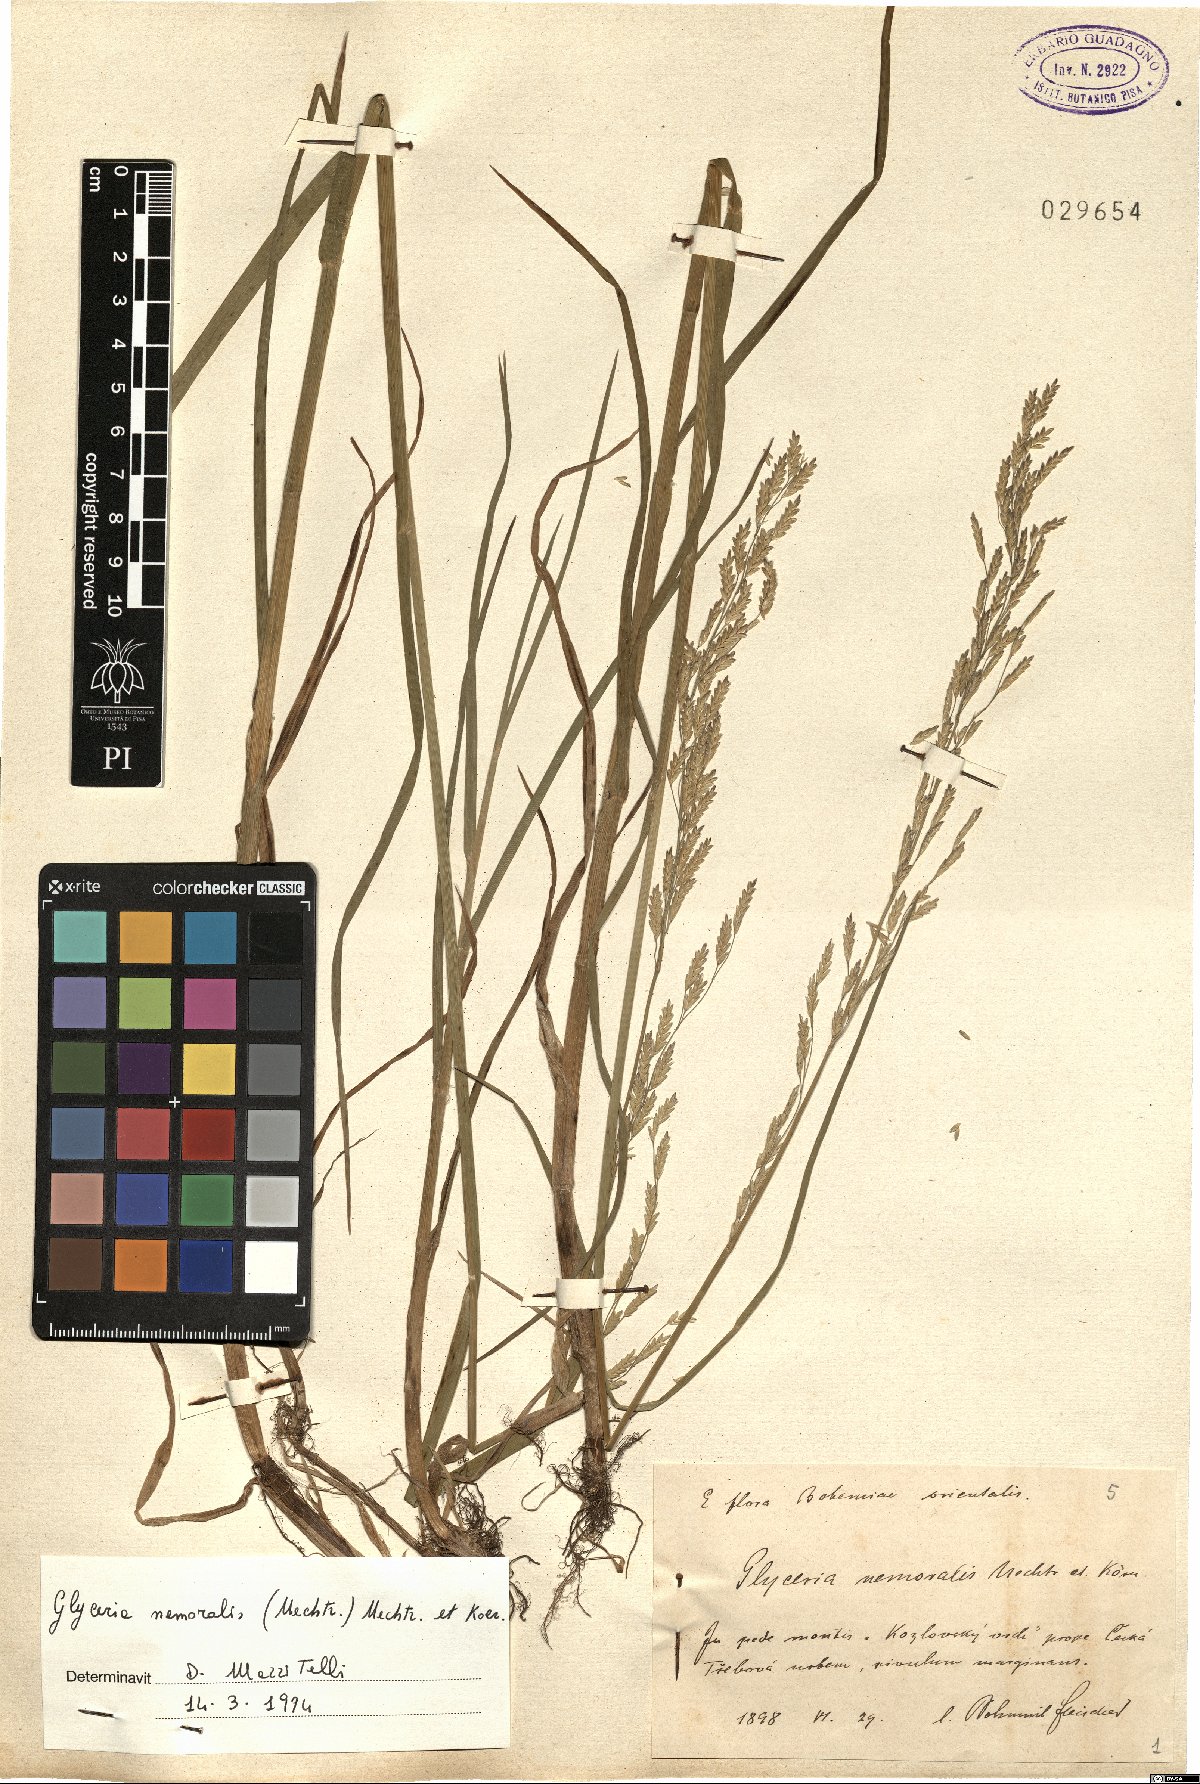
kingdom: Plantae
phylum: Tracheophyta
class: Liliopsida
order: Poales
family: Poaceae
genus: Glyceria
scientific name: Glyceria nemoralis
